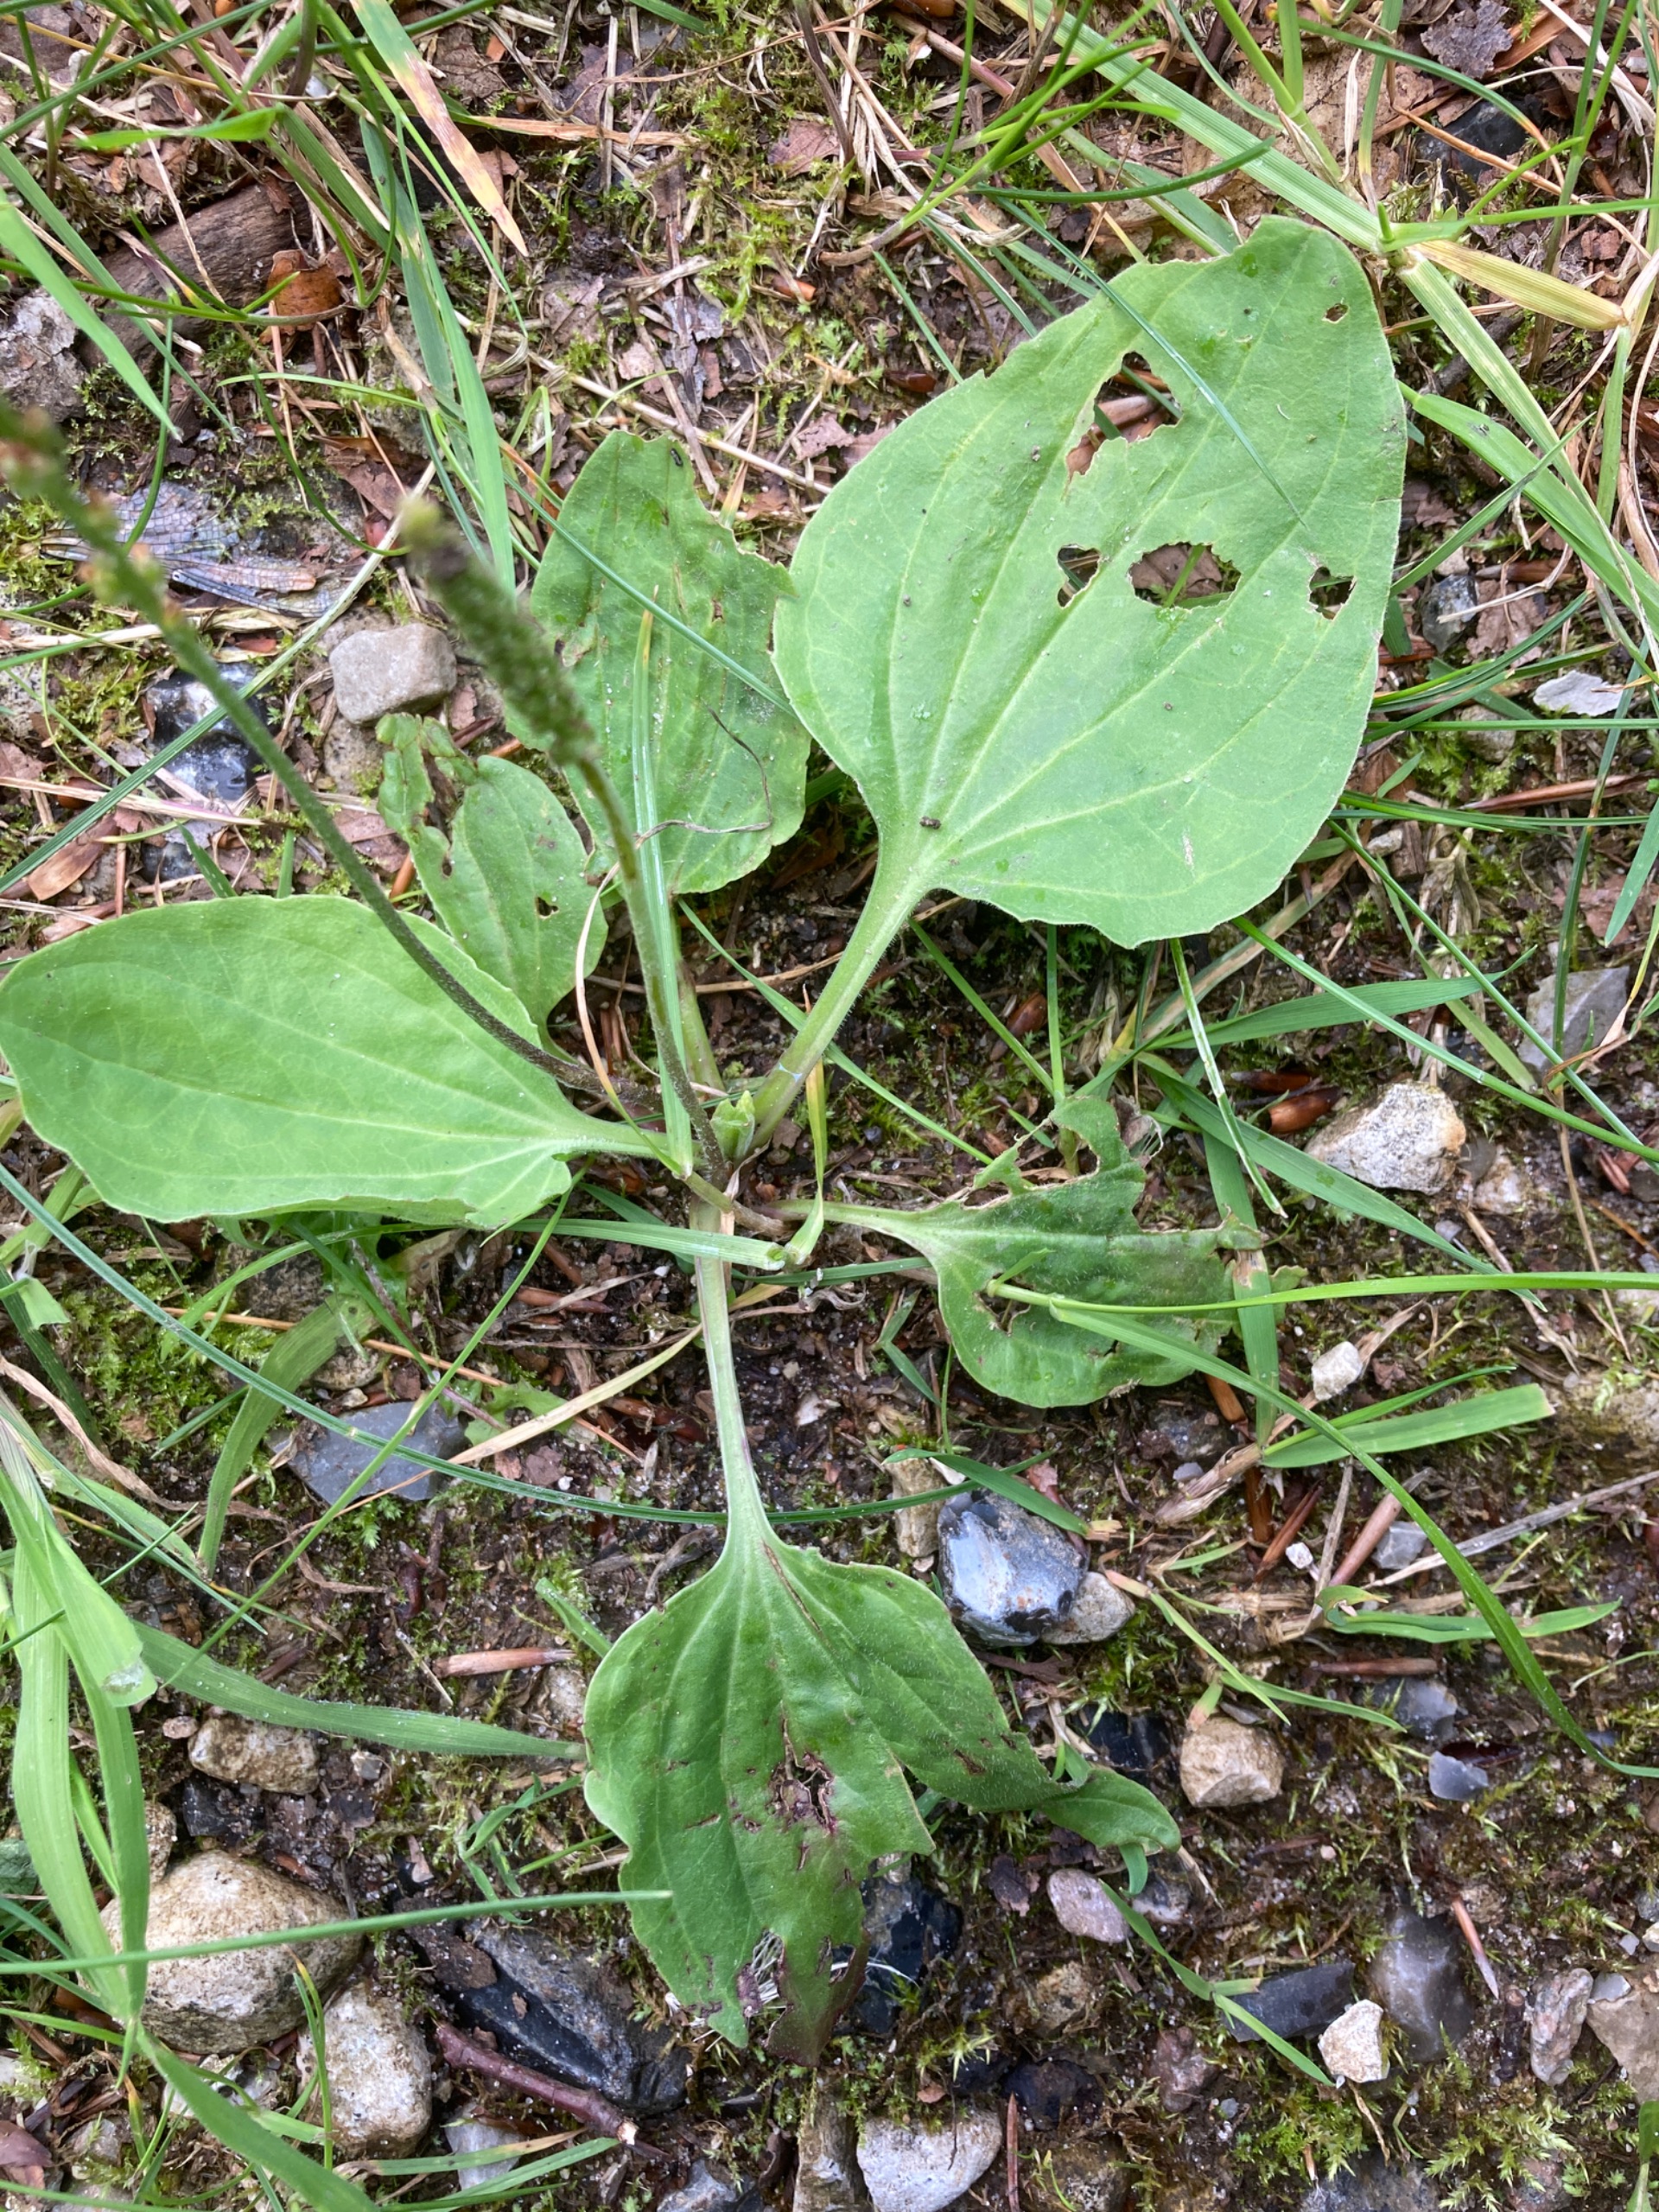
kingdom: Plantae
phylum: Tracheophyta
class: Magnoliopsida
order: Lamiales
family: Plantaginaceae
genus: Plantago
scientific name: Plantago major
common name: Glat vejbred
